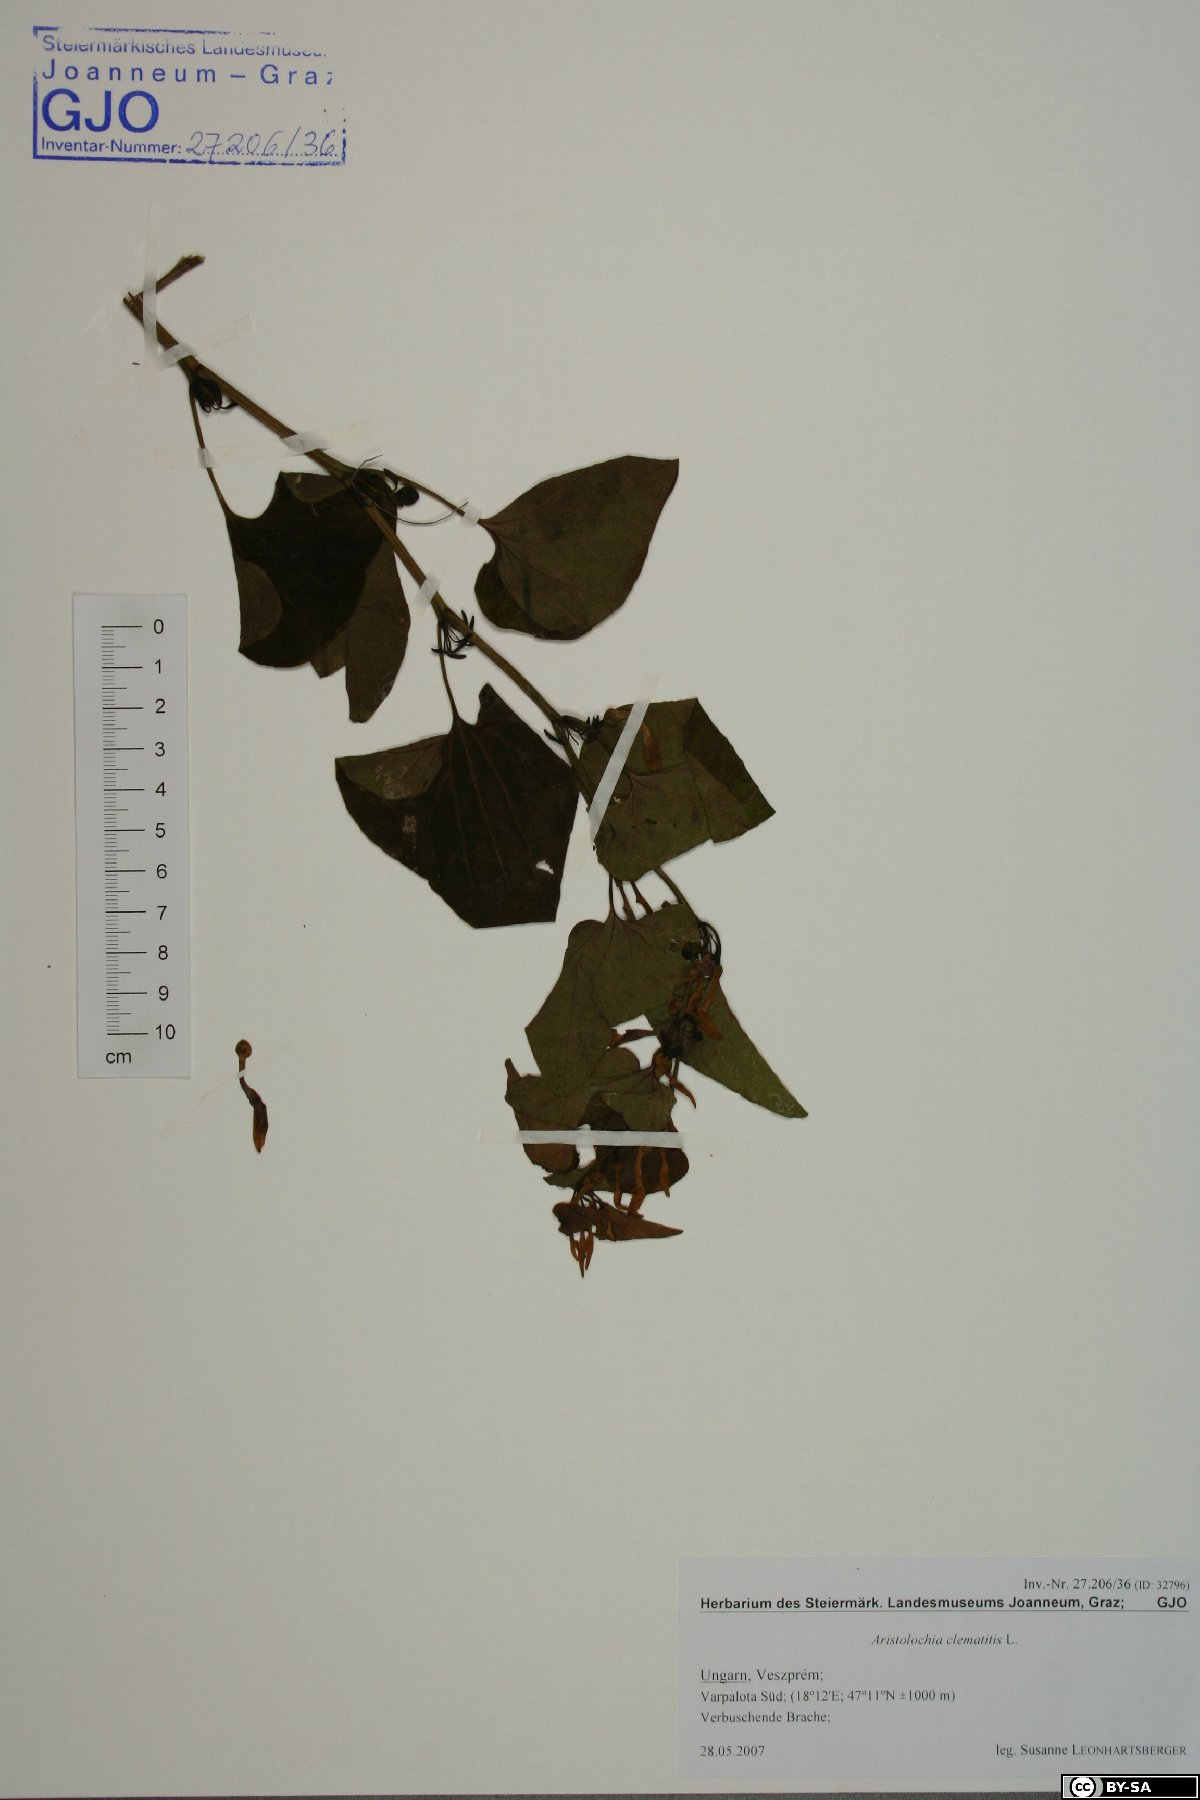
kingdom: Plantae
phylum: Tracheophyta
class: Magnoliopsida
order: Piperales
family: Aristolochiaceae
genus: Aristolochia
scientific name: Aristolochia clematitis
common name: Birthwort
